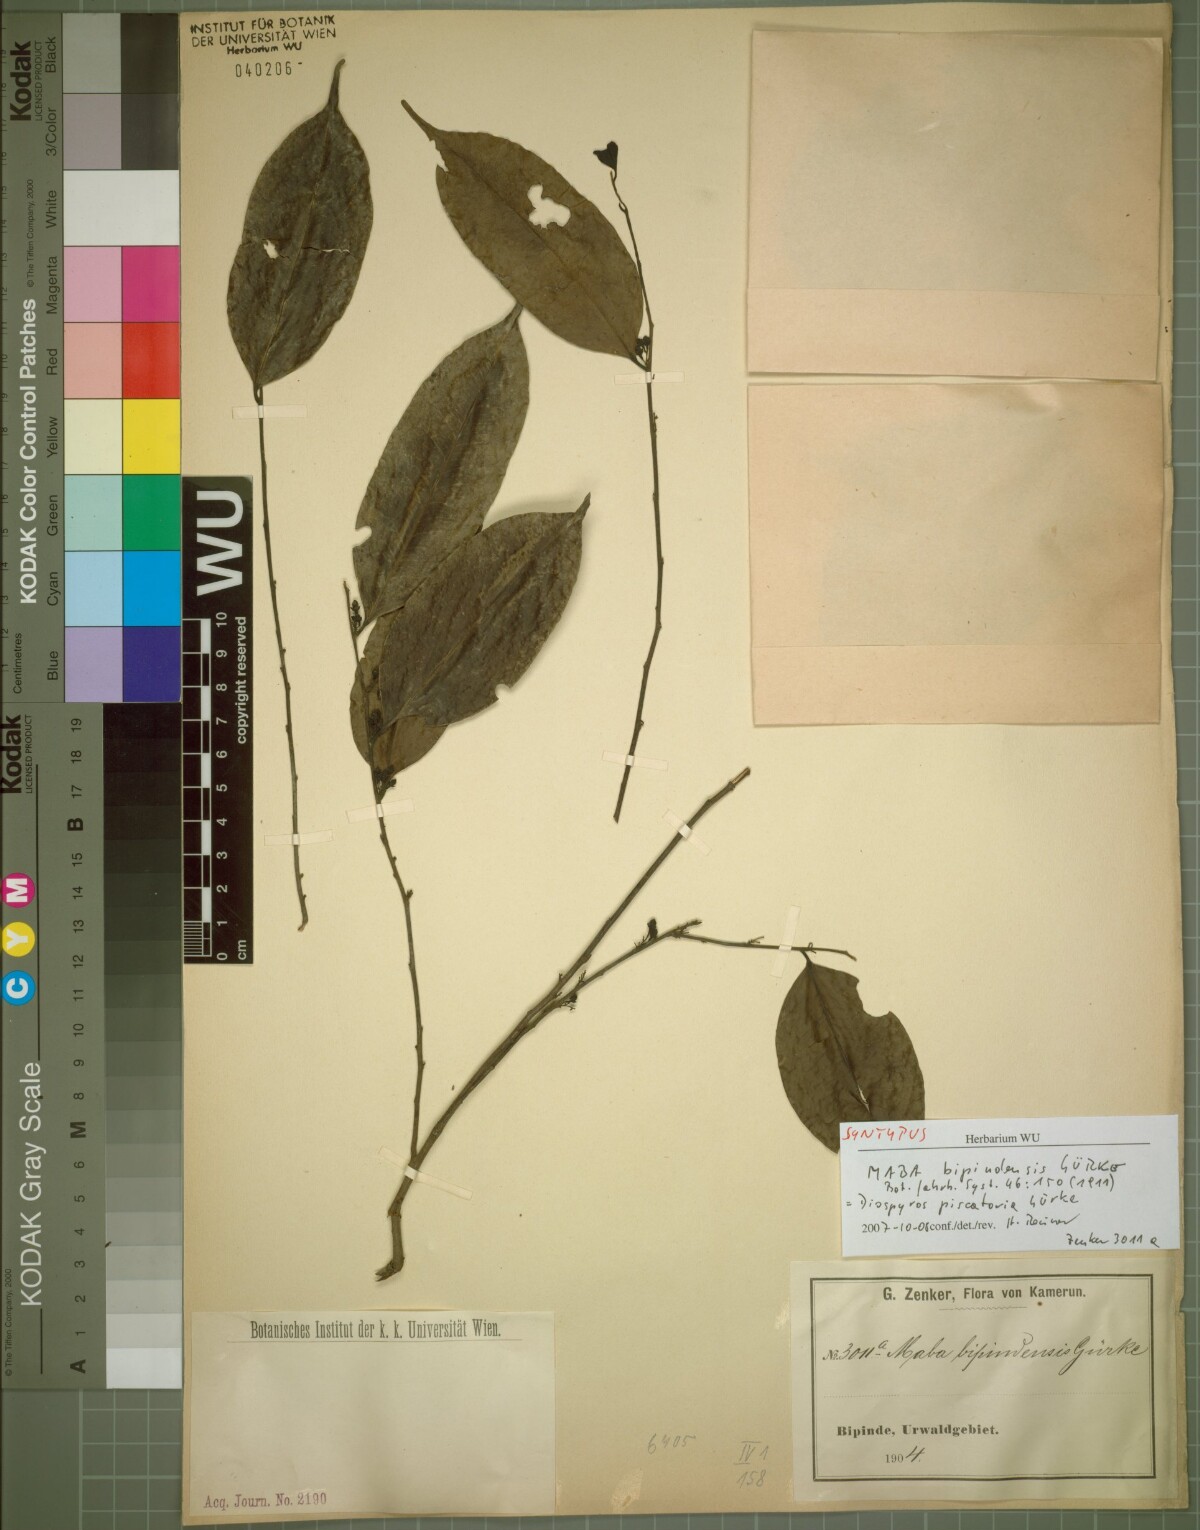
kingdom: Plantae
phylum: Tracheophyta
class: Magnoliopsida
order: Ericales
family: Ebenaceae
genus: Diospyros
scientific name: Diospyros piscatoria
